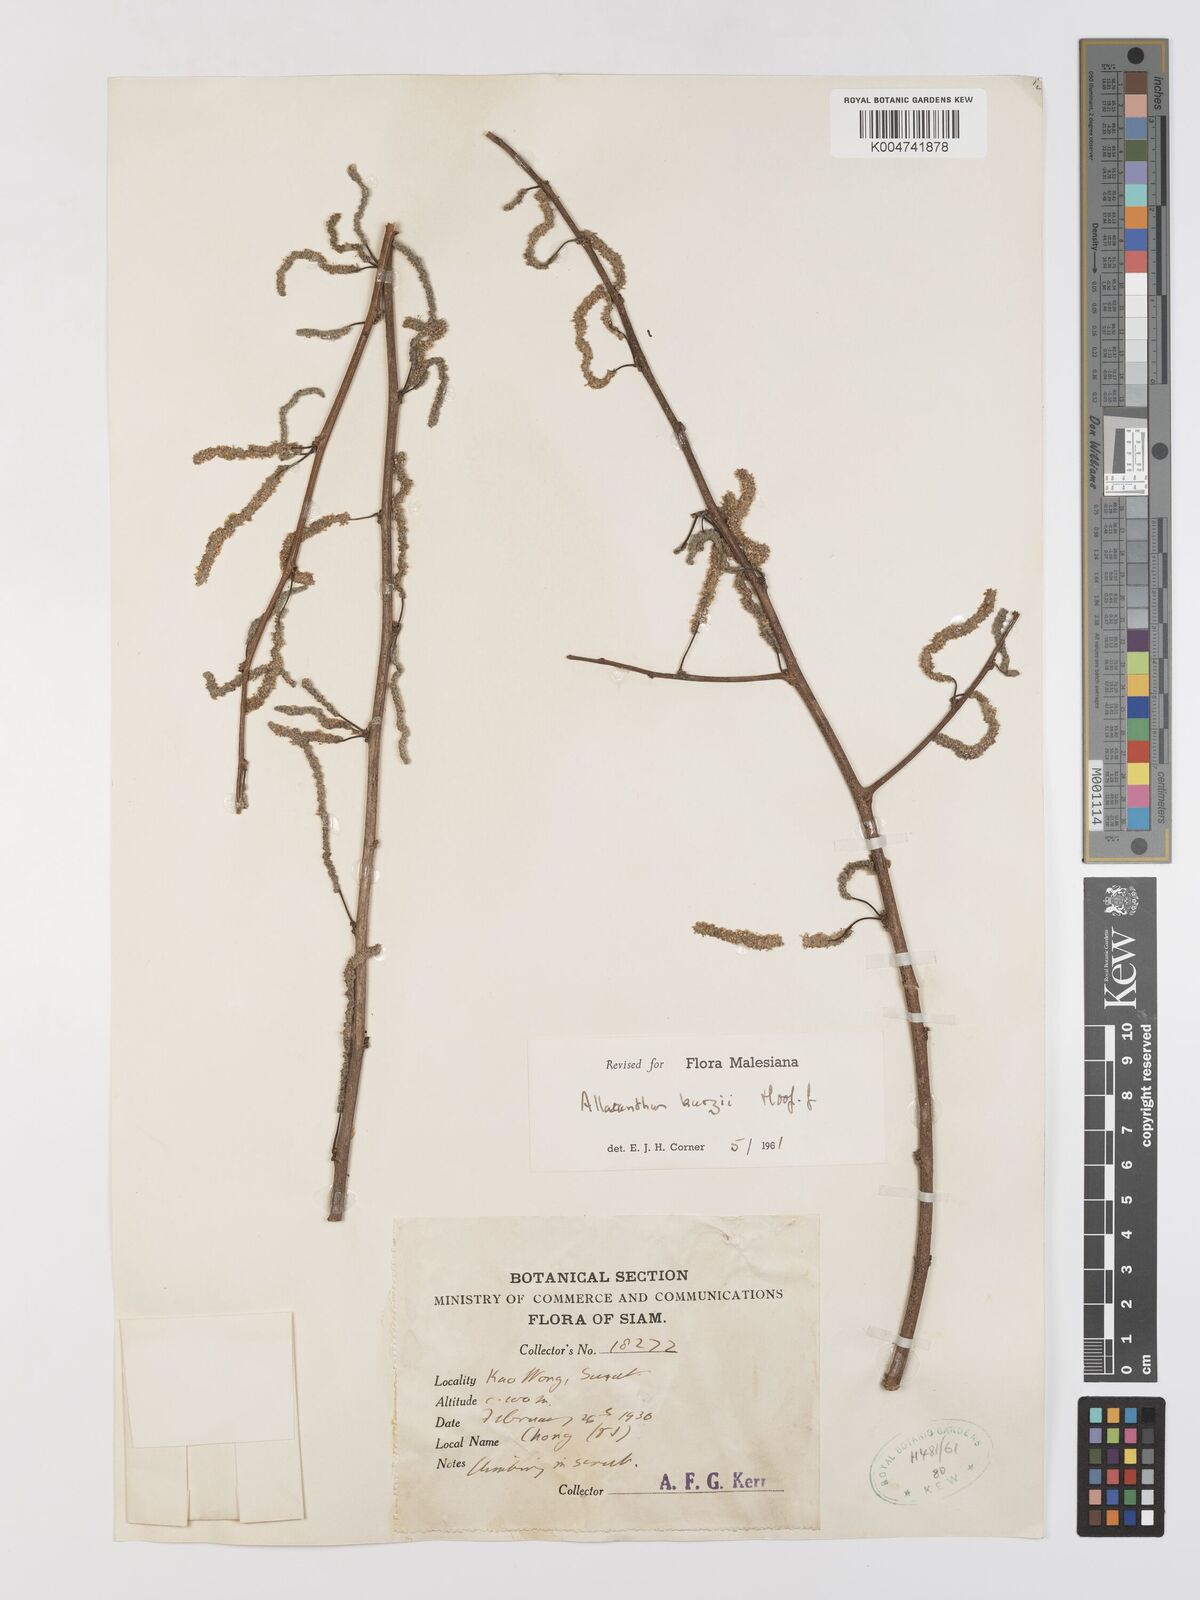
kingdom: Plantae
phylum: Tracheophyta
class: Magnoliopsida
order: Rosales
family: Moraceae
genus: Allaeanthus
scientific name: Allaeanthus kurzii
